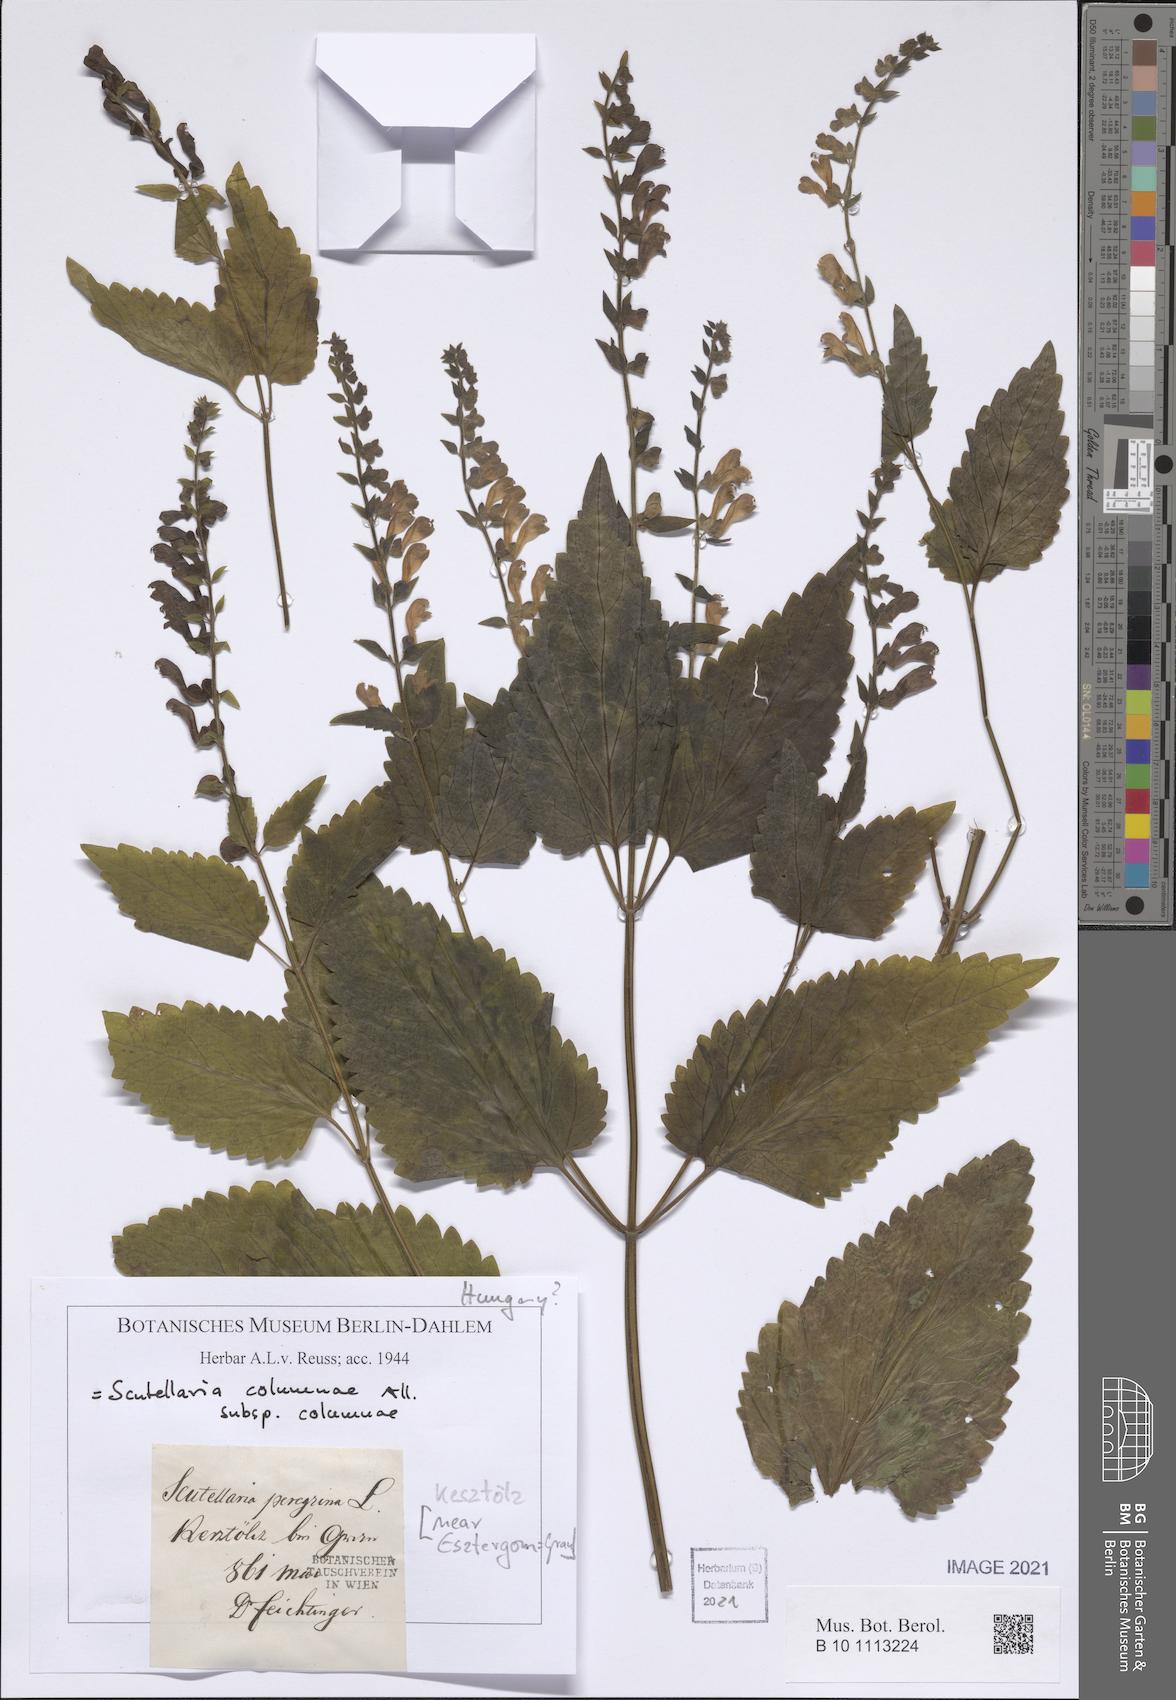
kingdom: Plantae
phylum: Tracheophyta
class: Magnoliopsida
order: Lamiales
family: Lamiaceae
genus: Scutellaria
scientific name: Scutellaria columnae
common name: Large skullcap
